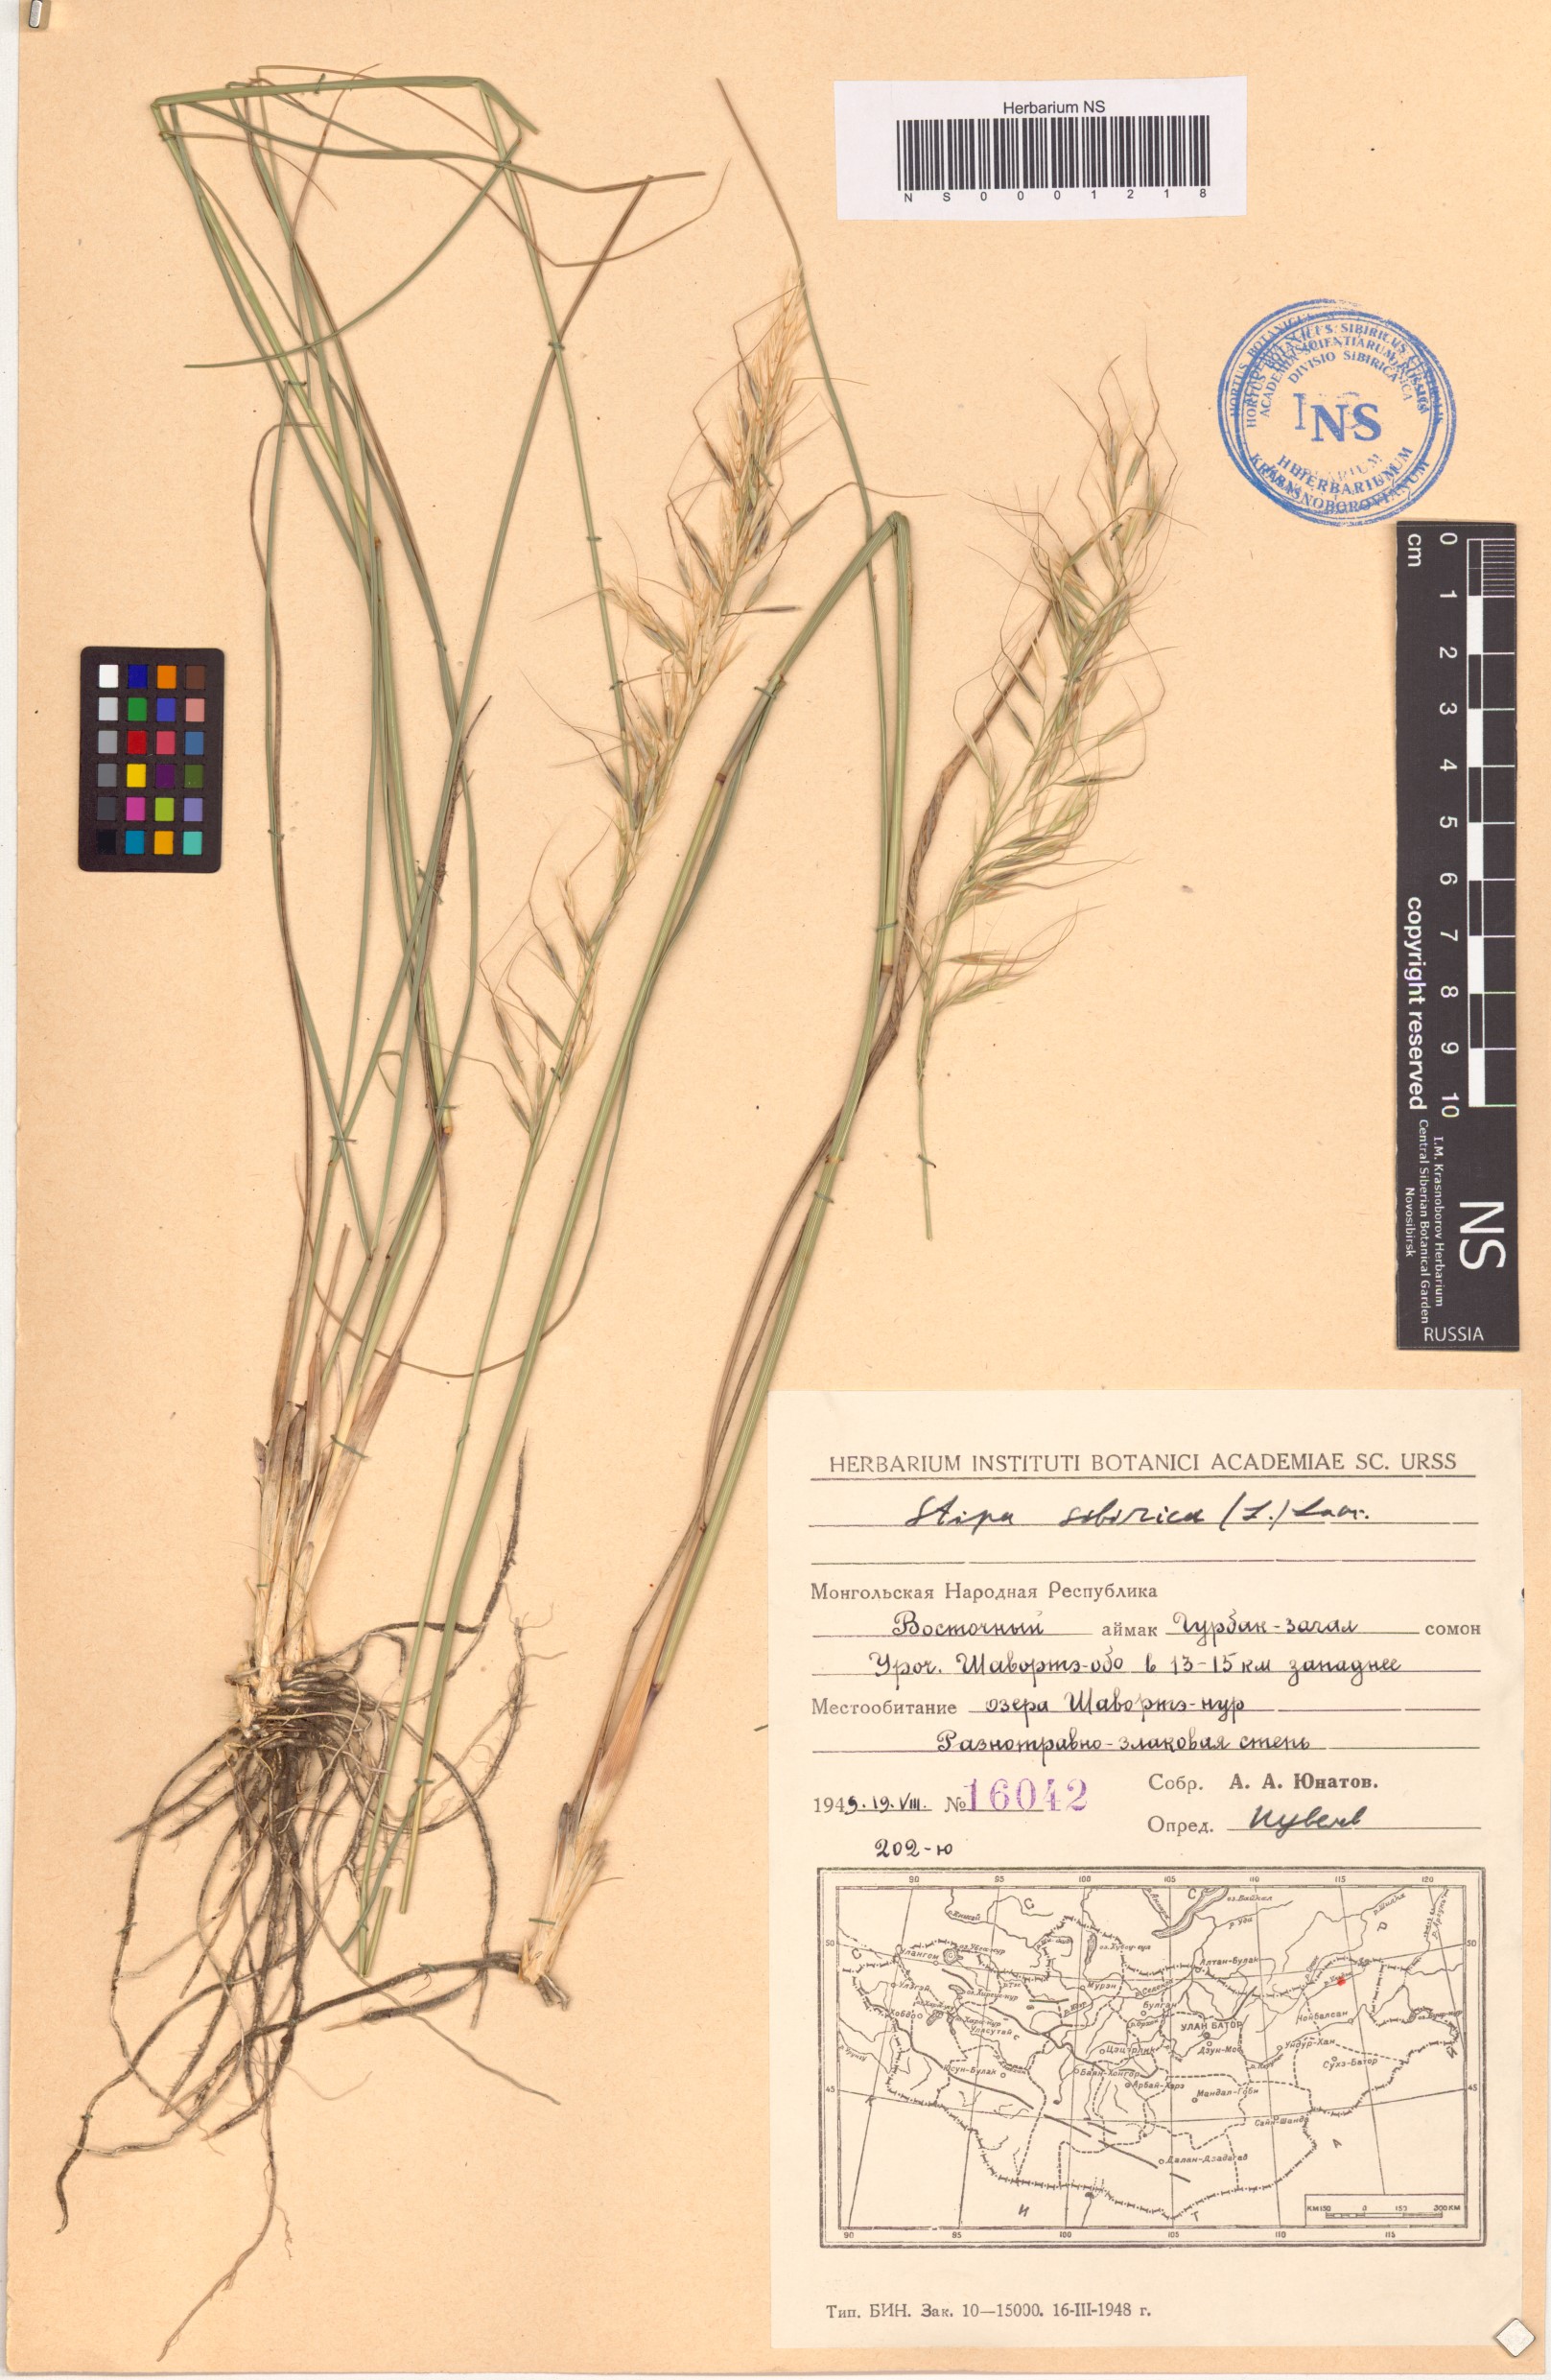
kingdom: Plantae
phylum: Tracheophyta
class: Liliopsida
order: Poales
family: Poaceae
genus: Achnatherum
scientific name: Achnatherum sibiricum
